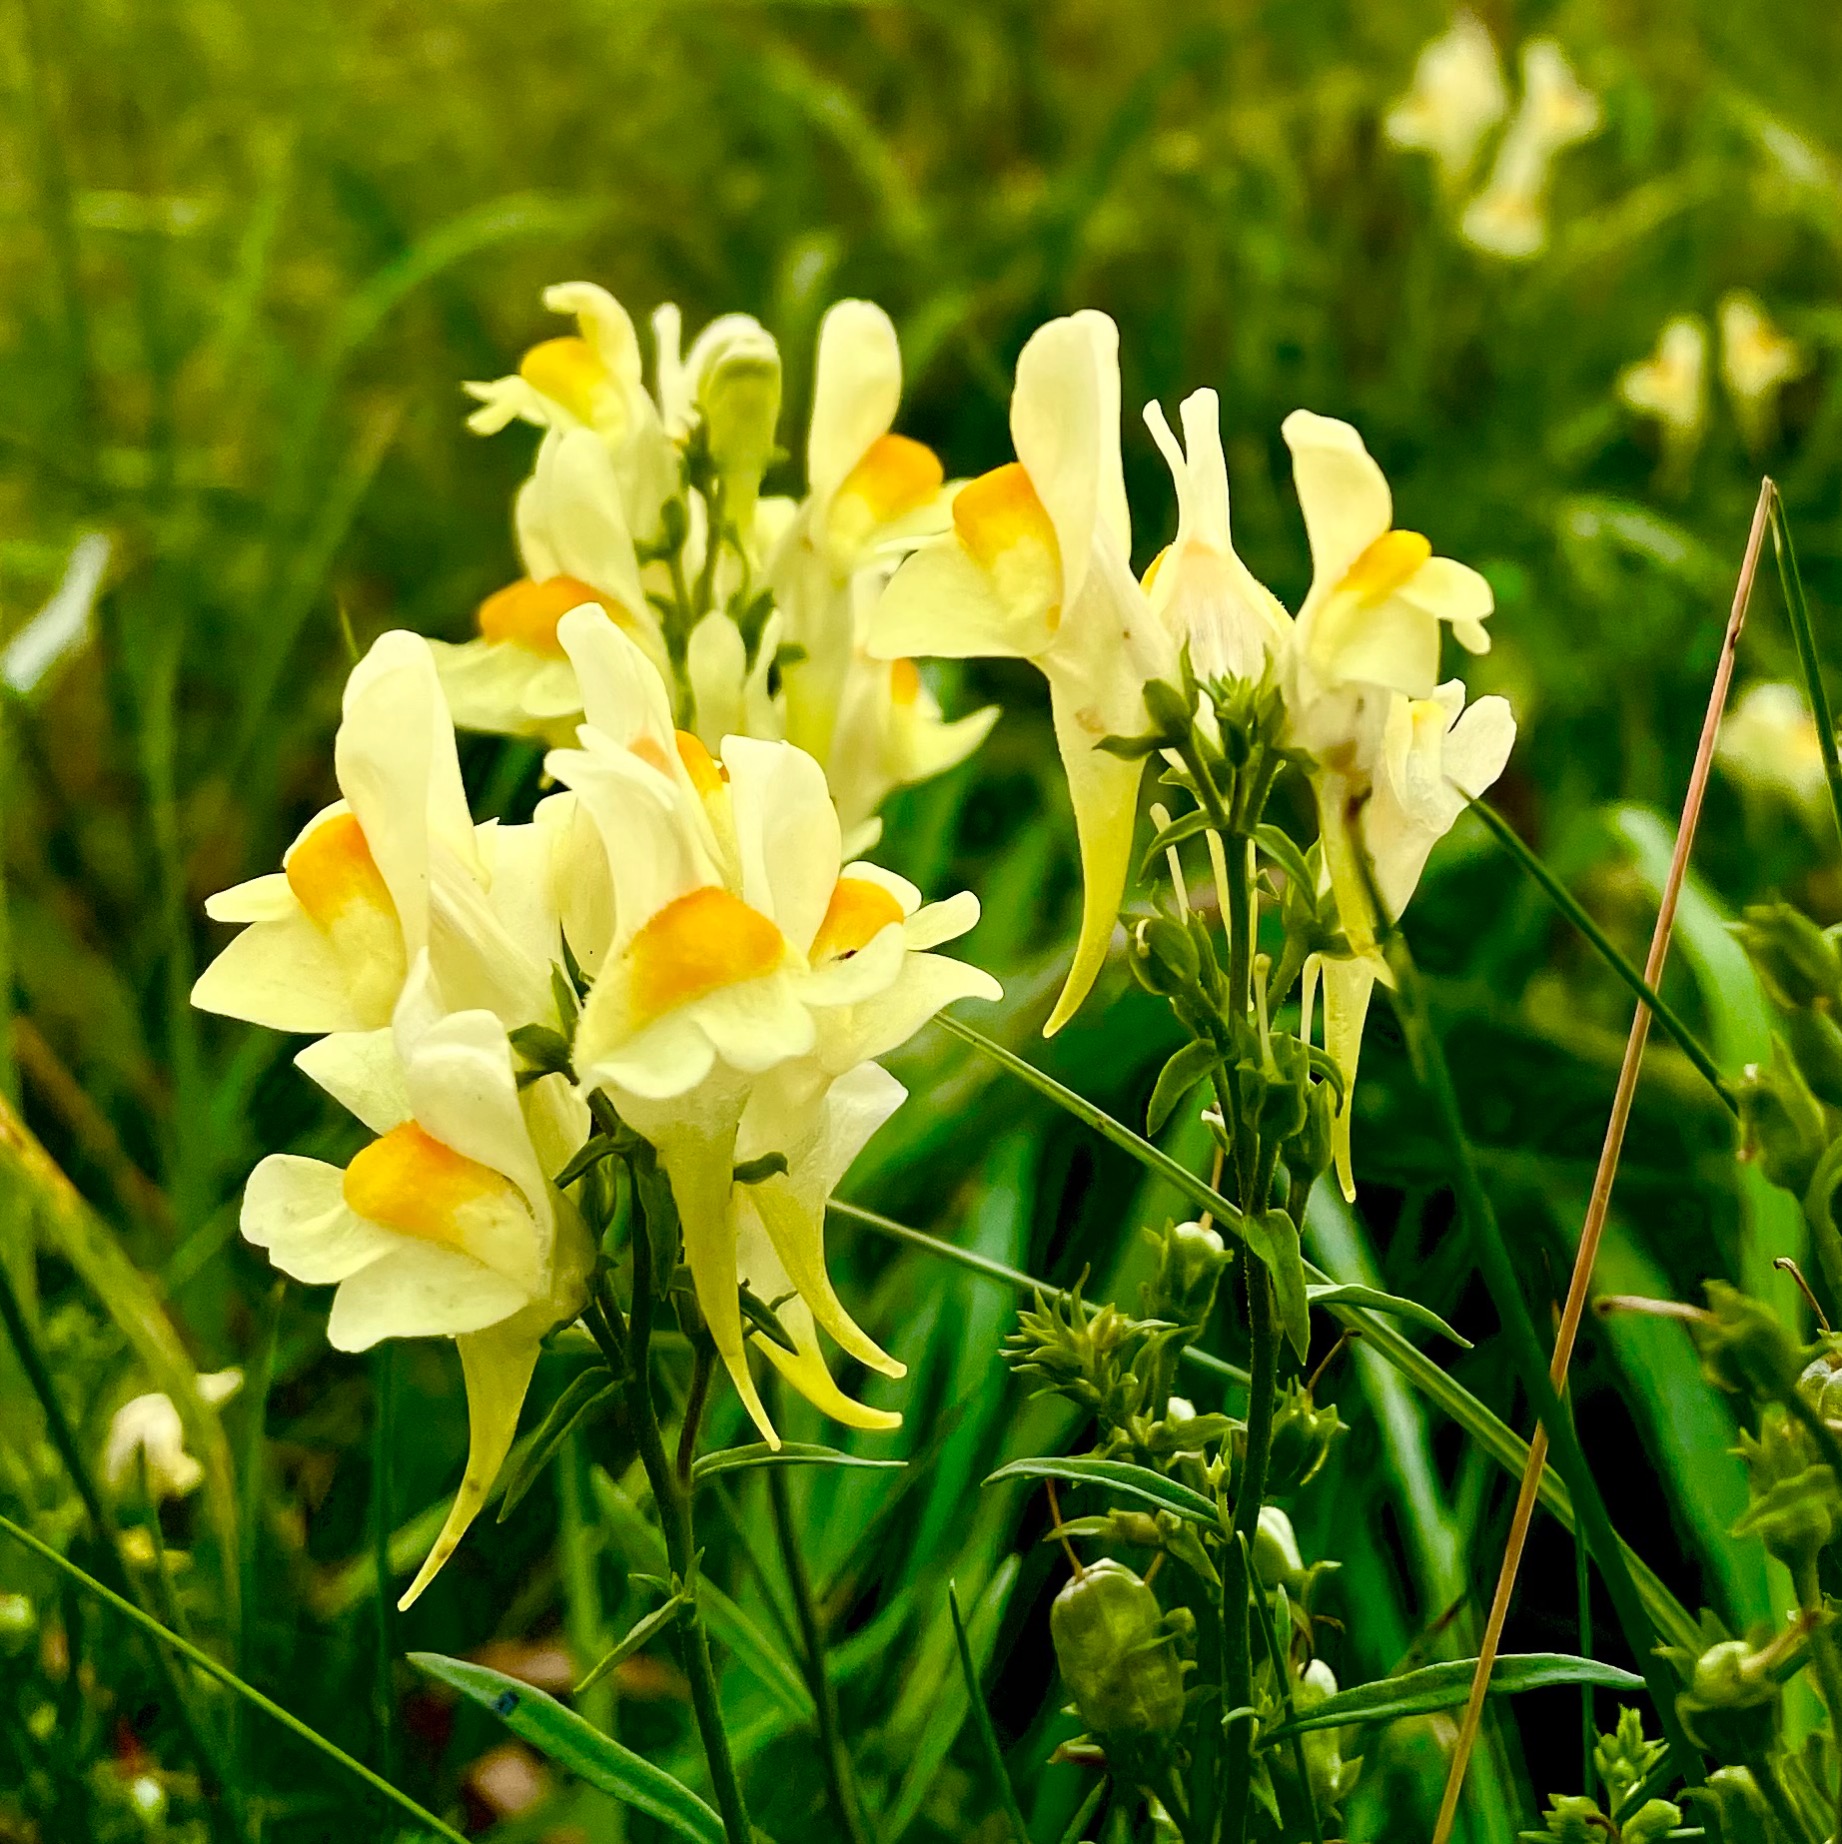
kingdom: Plantae
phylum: Tracheophyta
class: Magnoliopsida
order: Lamiales
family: Plantaginaceae
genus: Linaria
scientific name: Linaria vulgaris
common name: Almindelig torskemund
